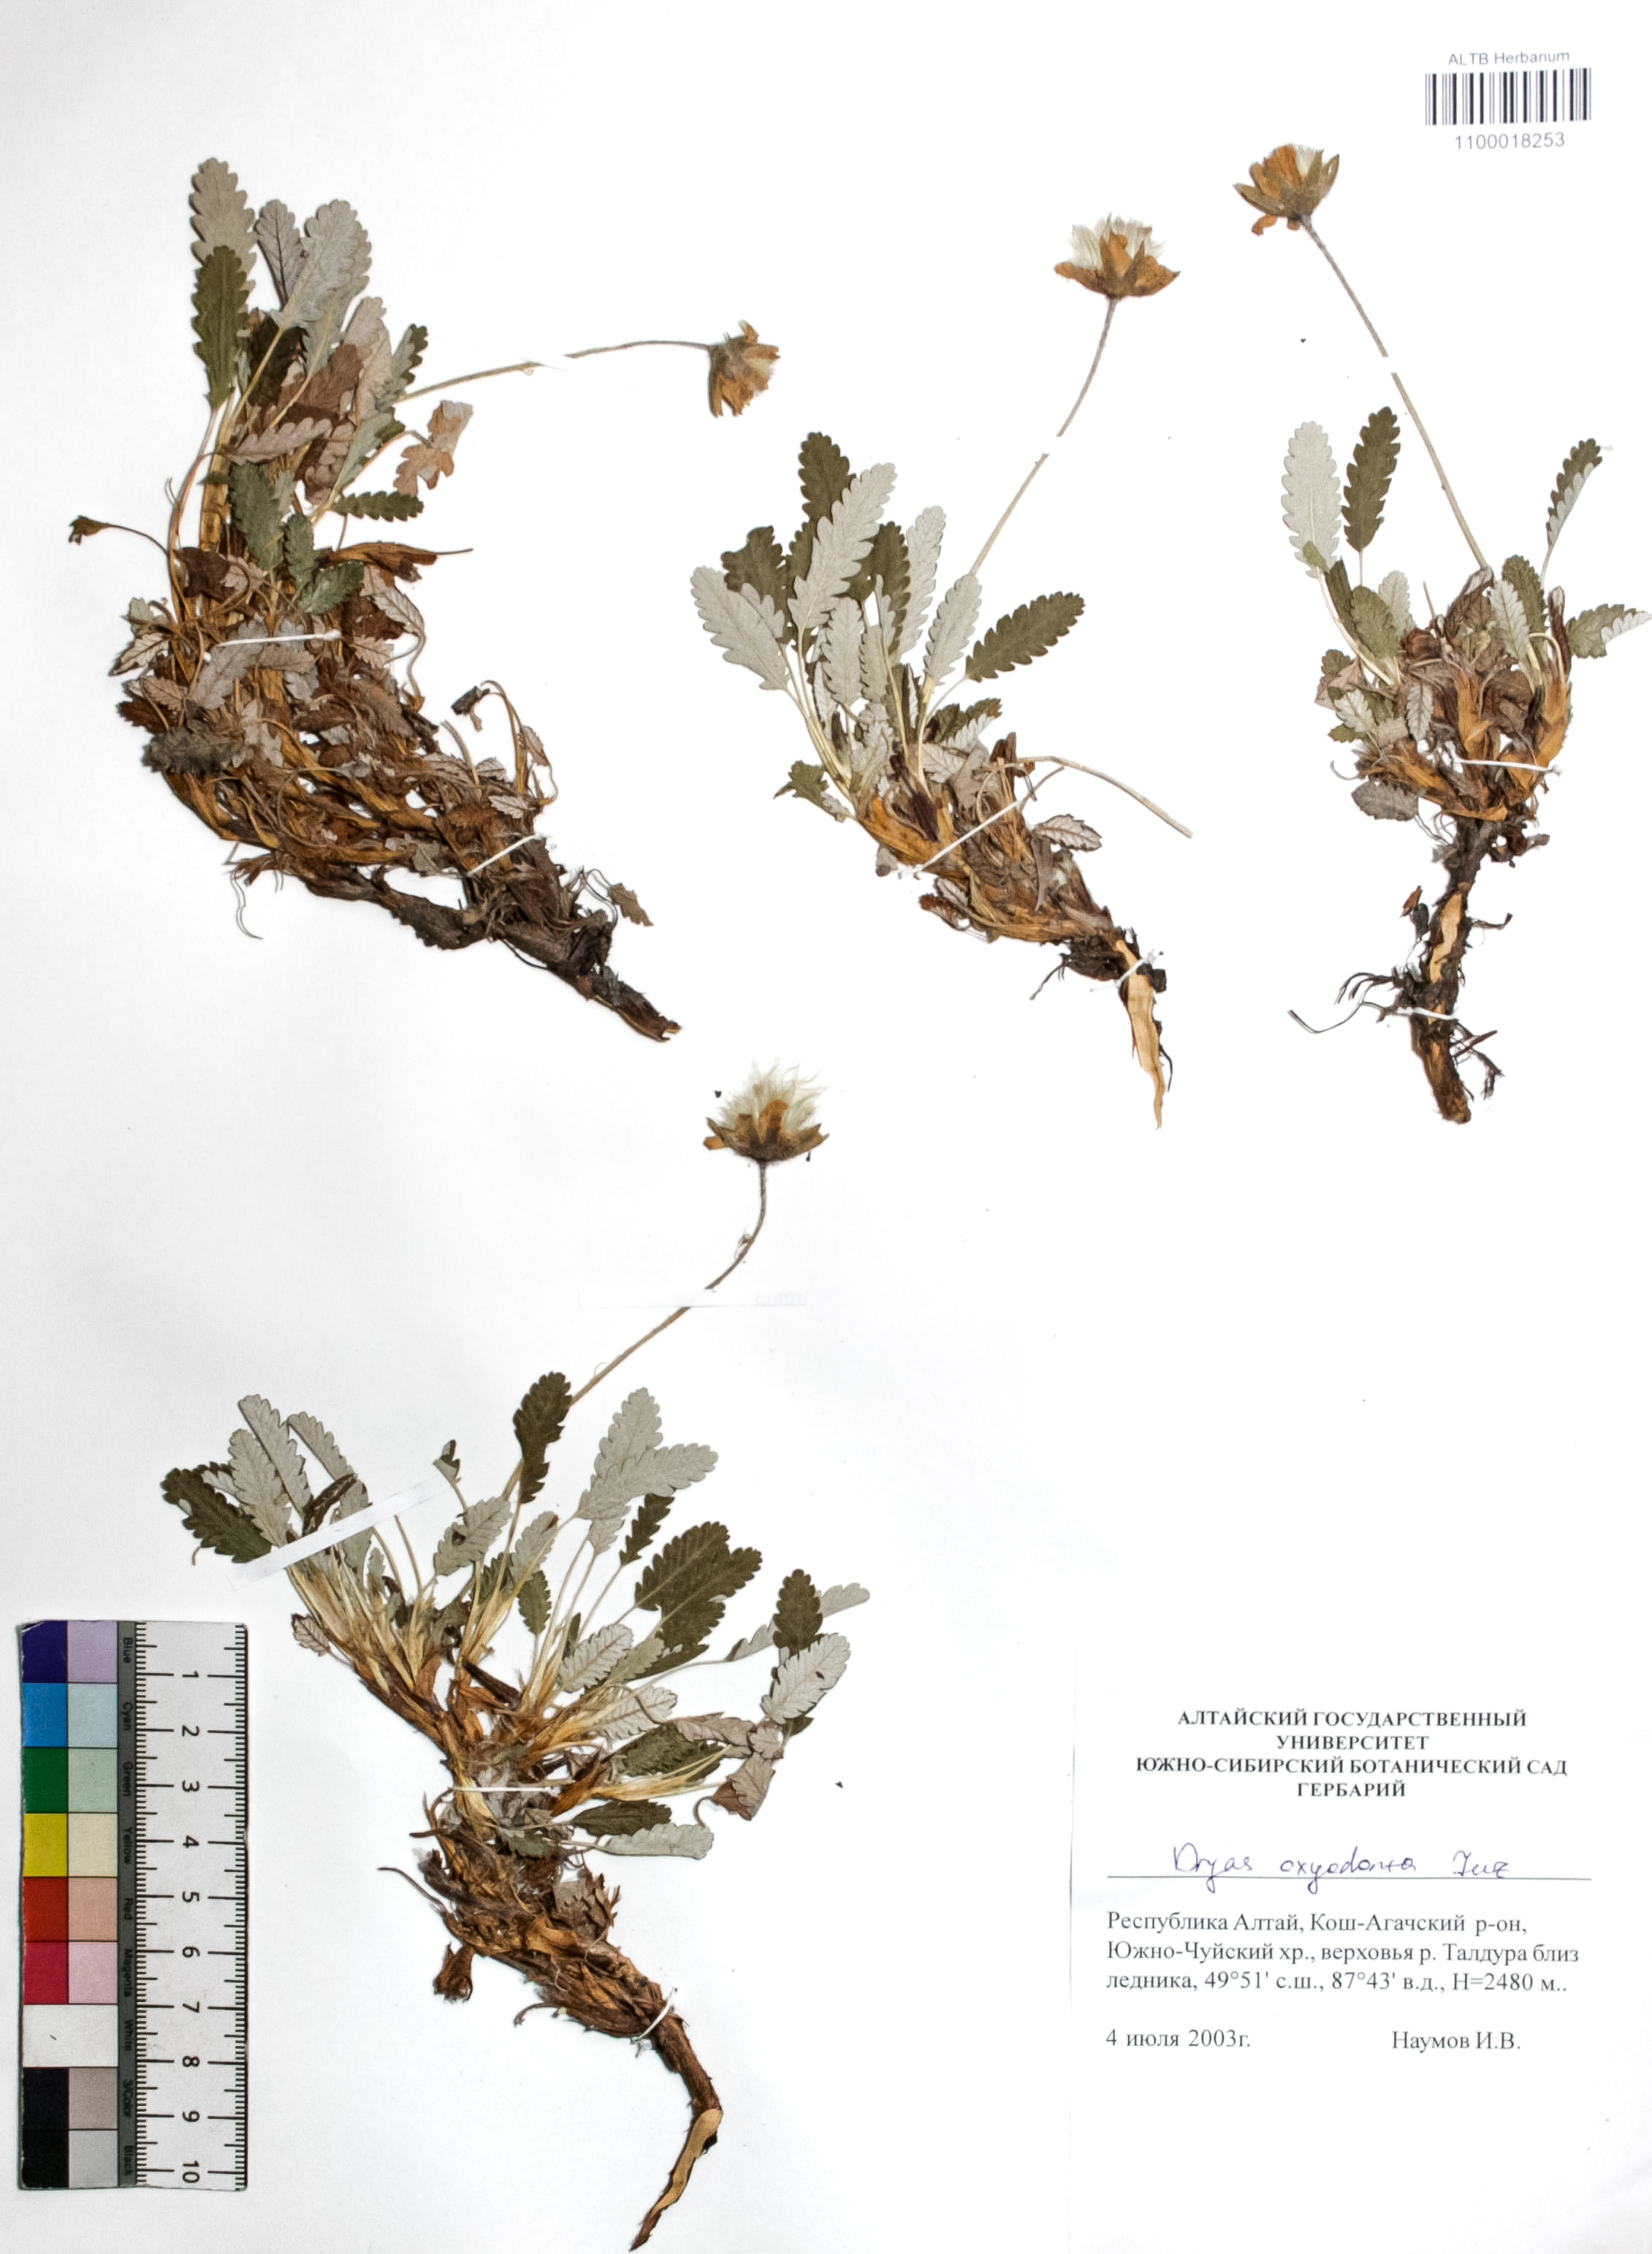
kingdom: Plantae
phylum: Tracheophyta
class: Magnoliopsida
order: Rosales
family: Rosaceae
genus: Dryas
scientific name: Dryas octopetala
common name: Eight-petal mountain-avens
